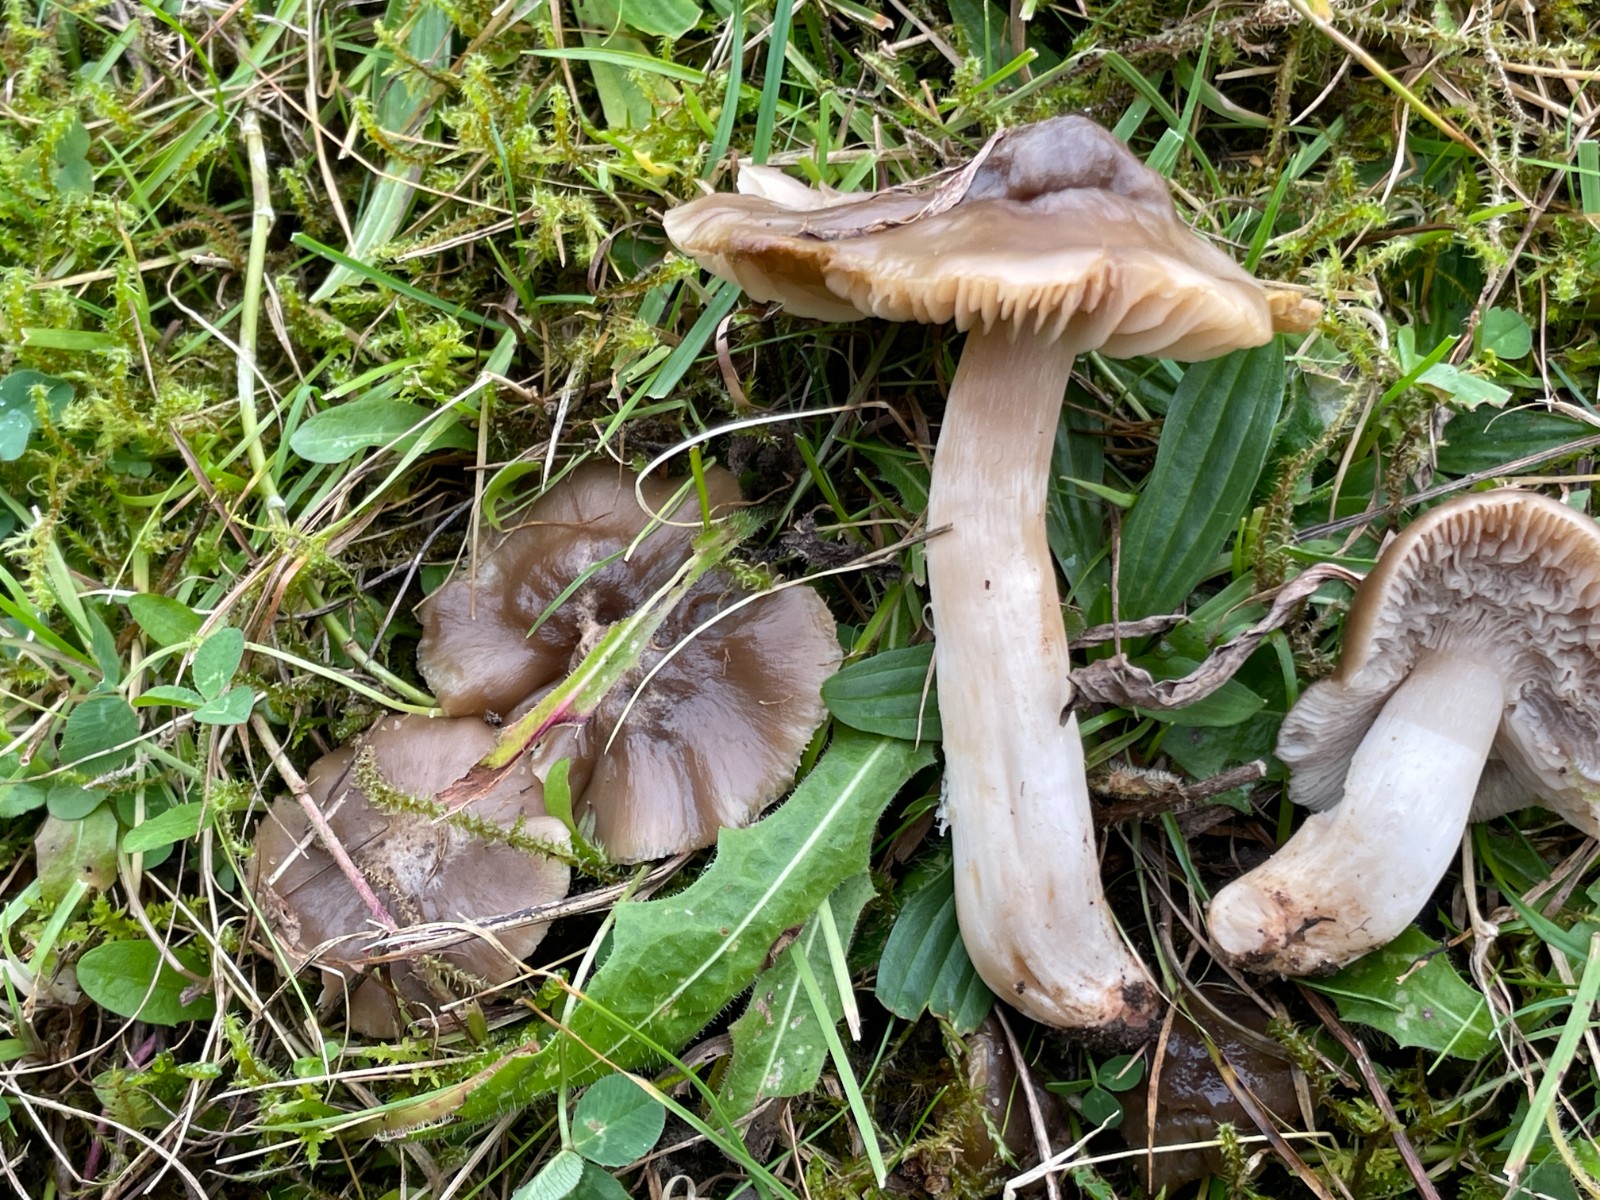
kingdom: Fungi
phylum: Basidiomycota
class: Agaricomycetes
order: Agaricales
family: Hygrophoraceae
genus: Cuphophyllus
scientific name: Cuphophyllus fornicatus
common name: gråbrun vokshat
